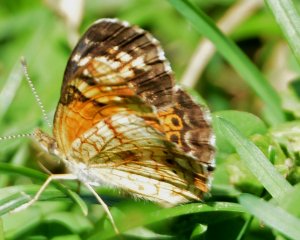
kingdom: Animalia
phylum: Arthropoda
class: Insecta
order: Lepidoptera
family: Nymphalidae
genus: Phyciodes
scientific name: Phyciodes tharos
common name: Northern Crescent
